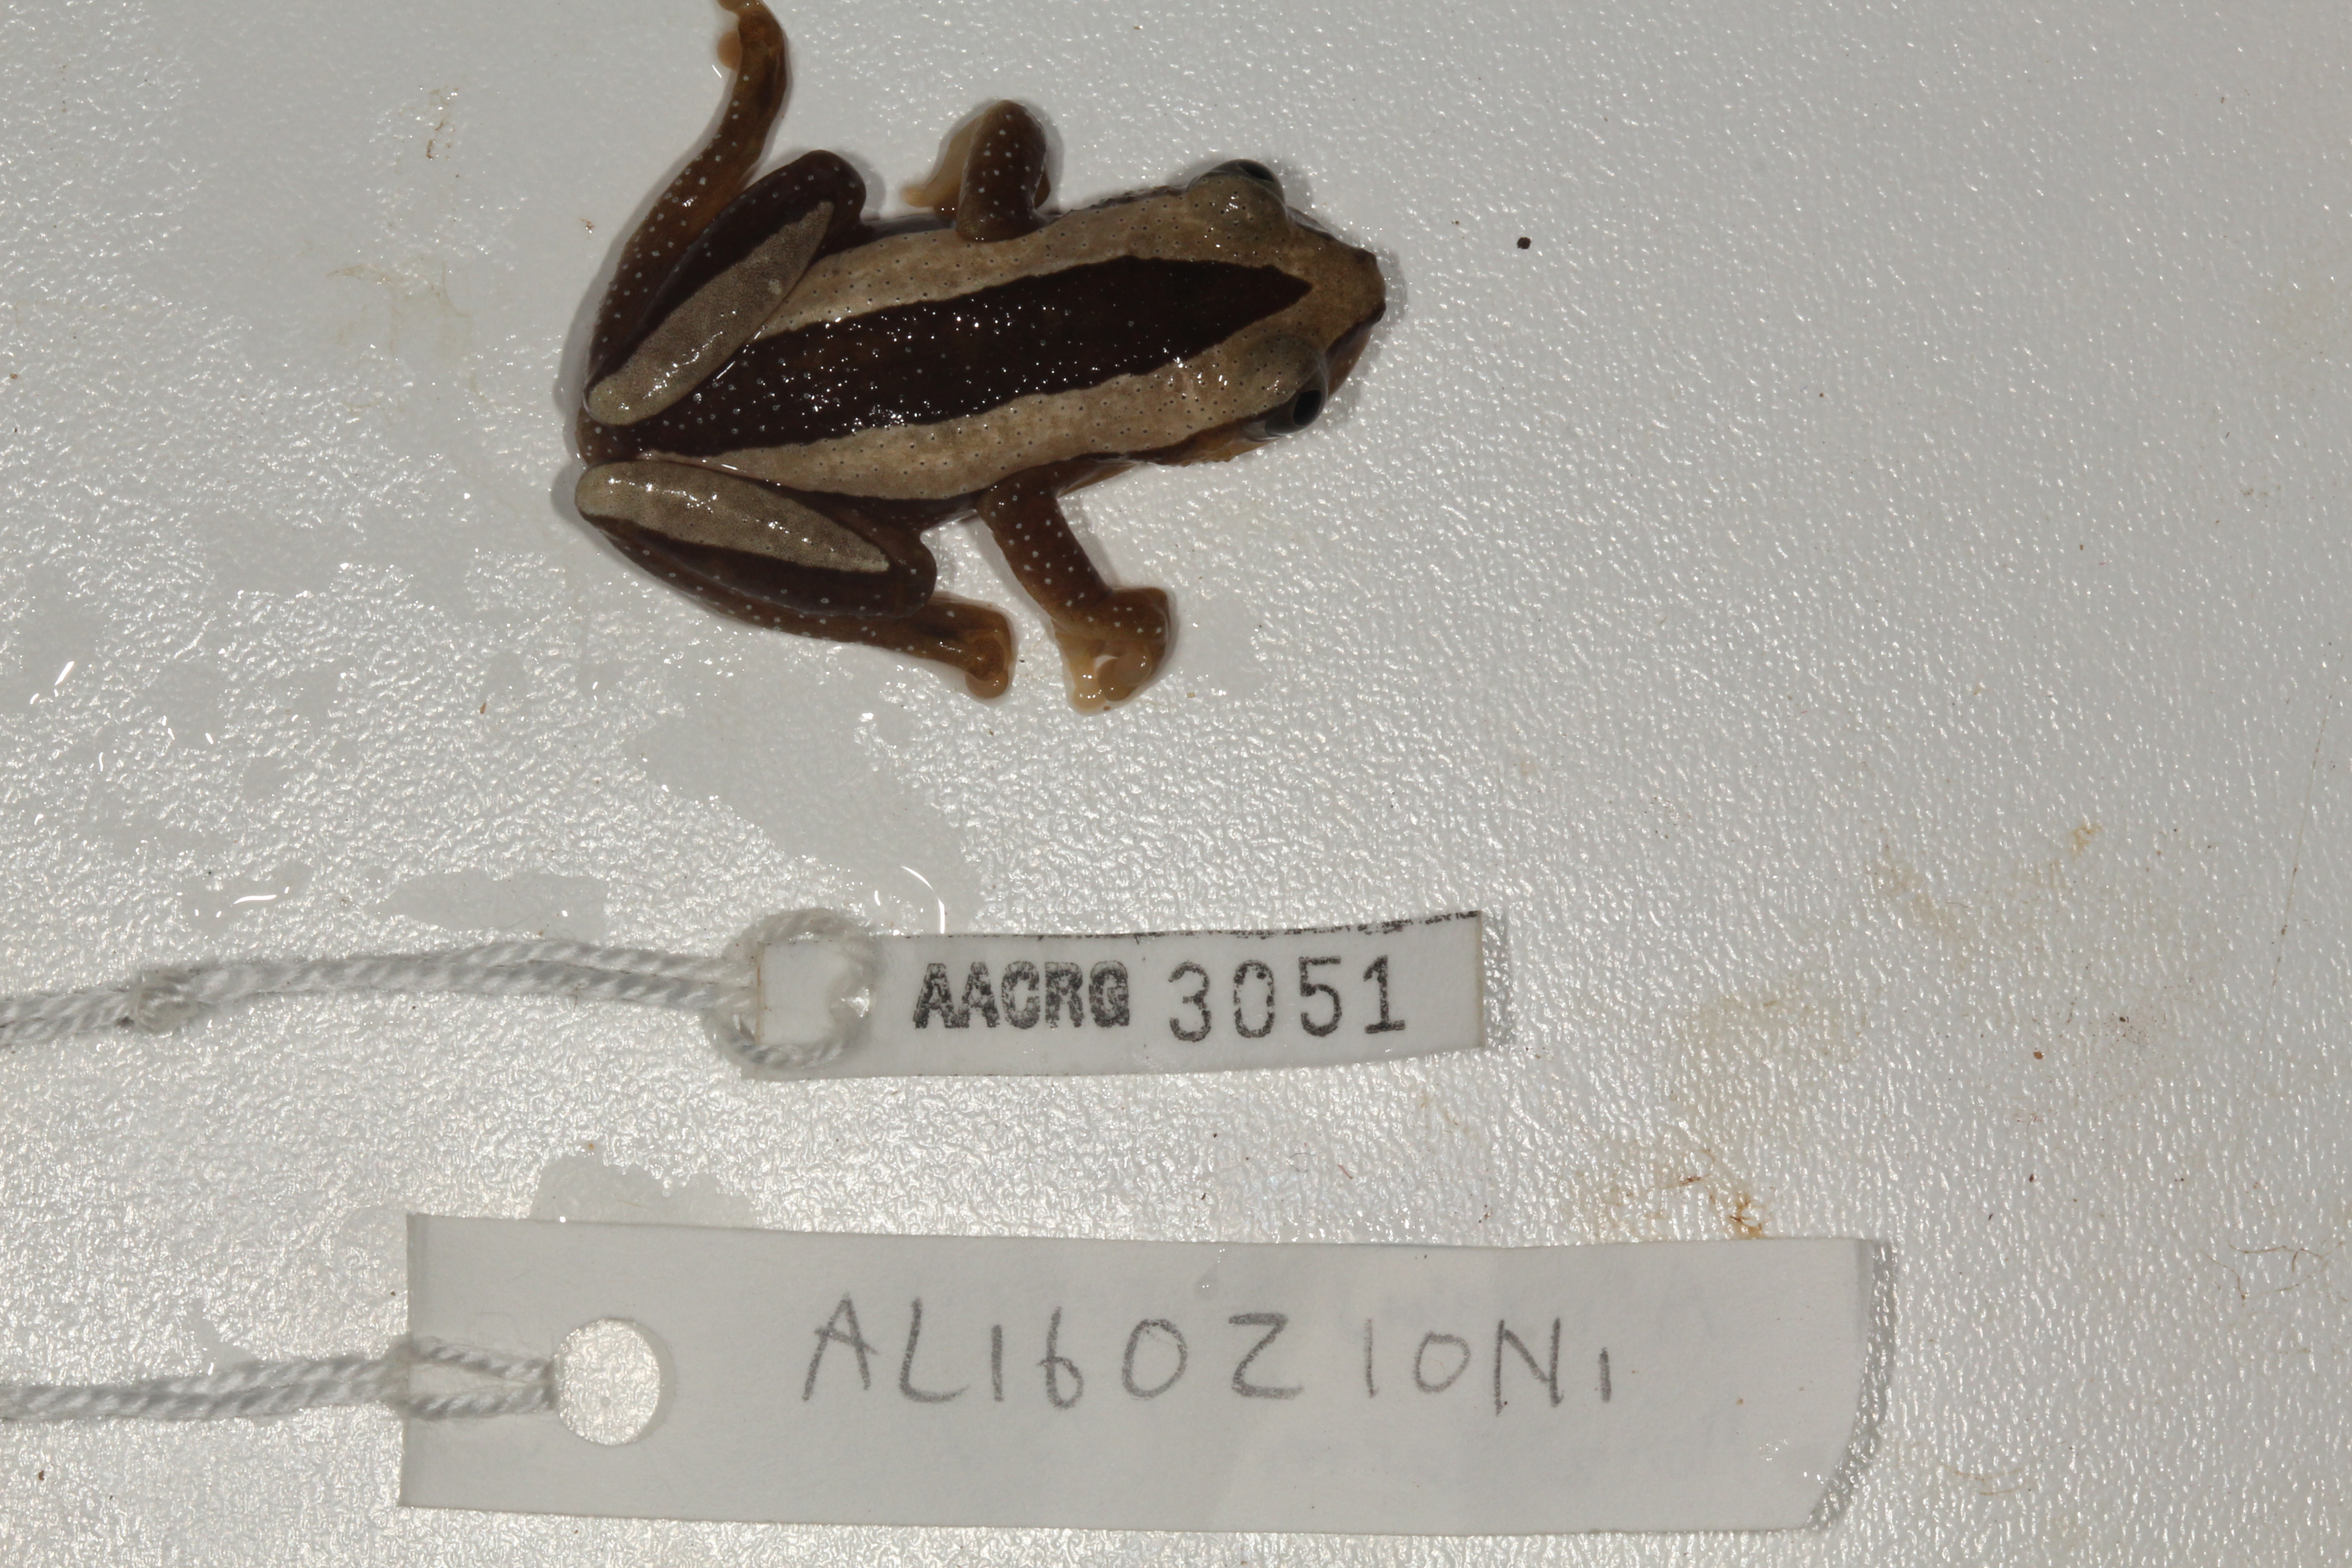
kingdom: Animalia
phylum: Chordata
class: Amphibia
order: Anura
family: Hyperoliidae
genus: Afrixalus
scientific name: Afrixalus fornasini
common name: Fornasini's spiny reed frog
